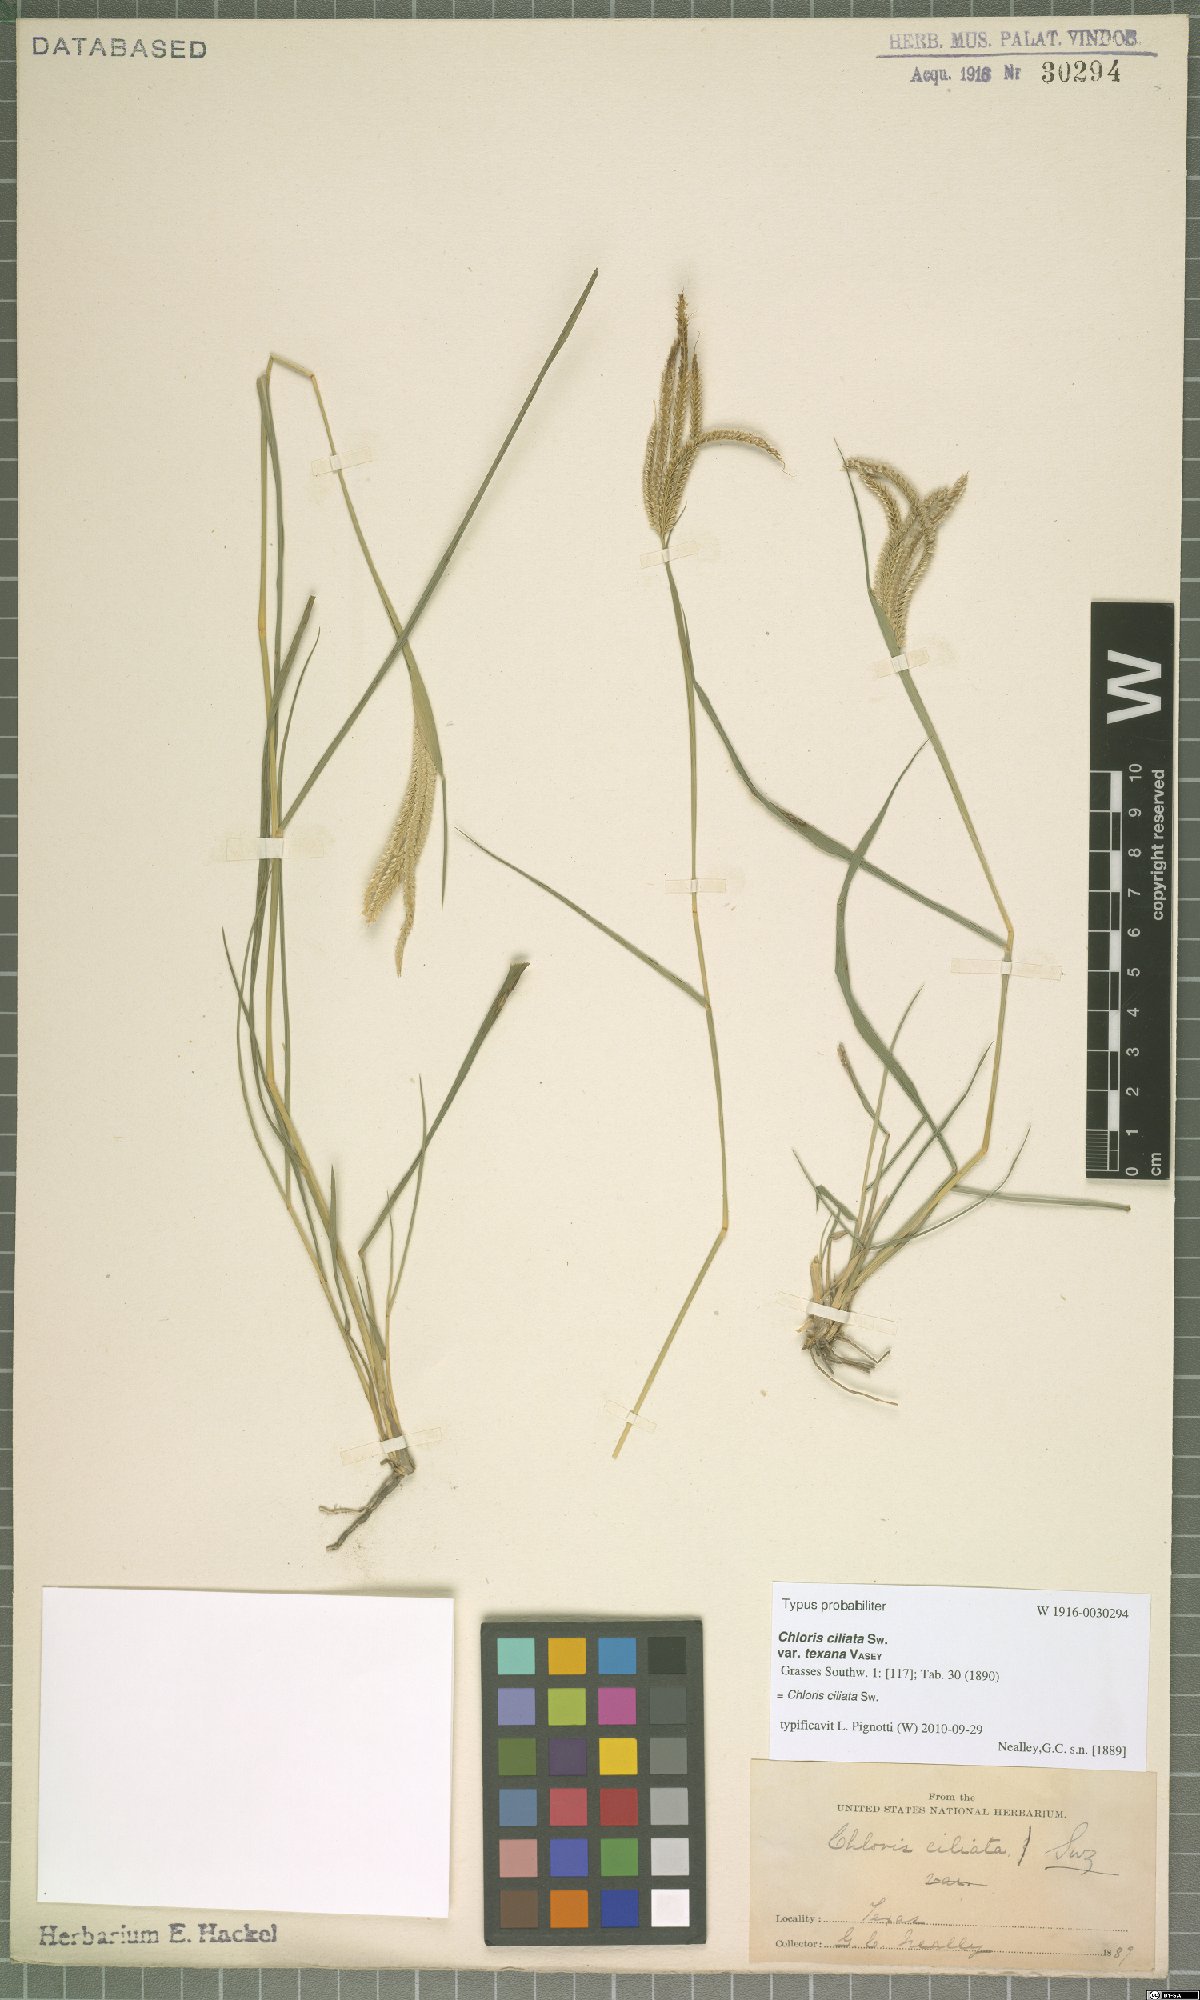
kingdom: Plantae
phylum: Tracheophyta
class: Liliopsida
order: Poales
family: Poaceae
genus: Stapfochloa
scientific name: Stapfochloa ciliata
